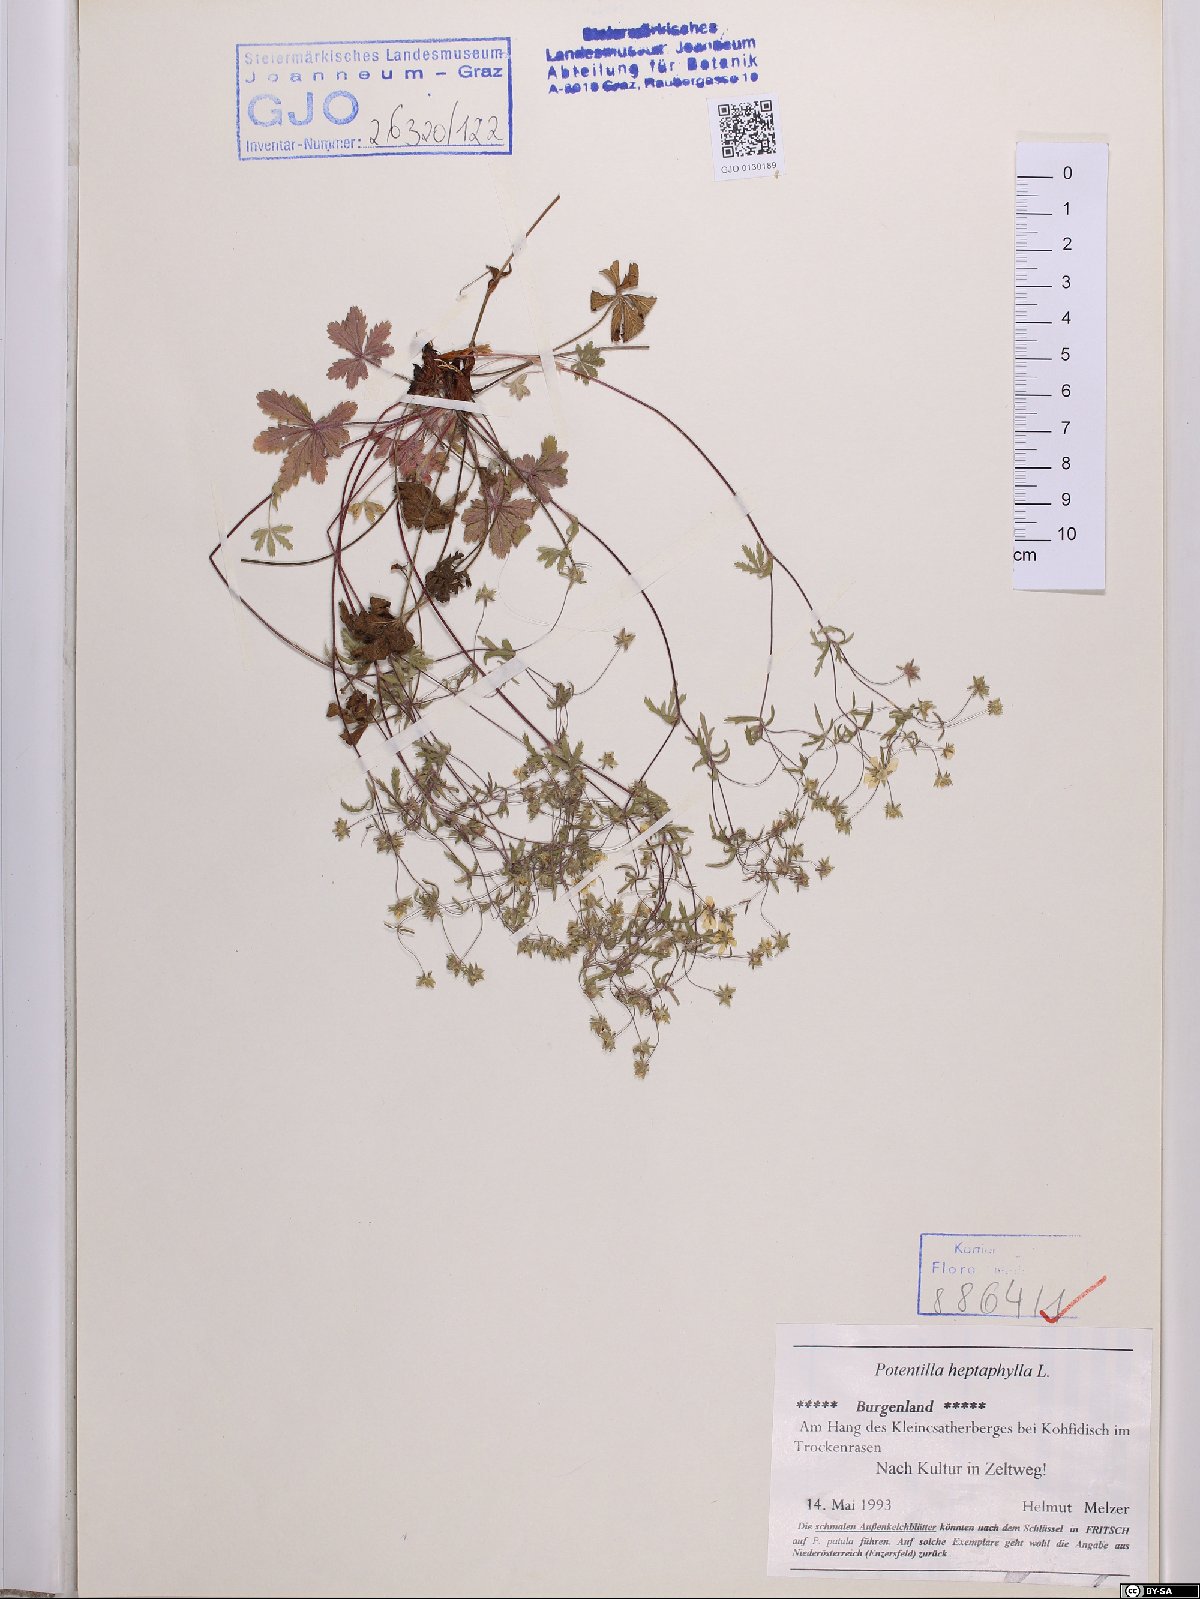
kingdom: Plantae
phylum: Tracheophyta
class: Magnoliopsida
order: Rosales
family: Rosaceae
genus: Potentilla
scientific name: Potentilla heptaphylla
